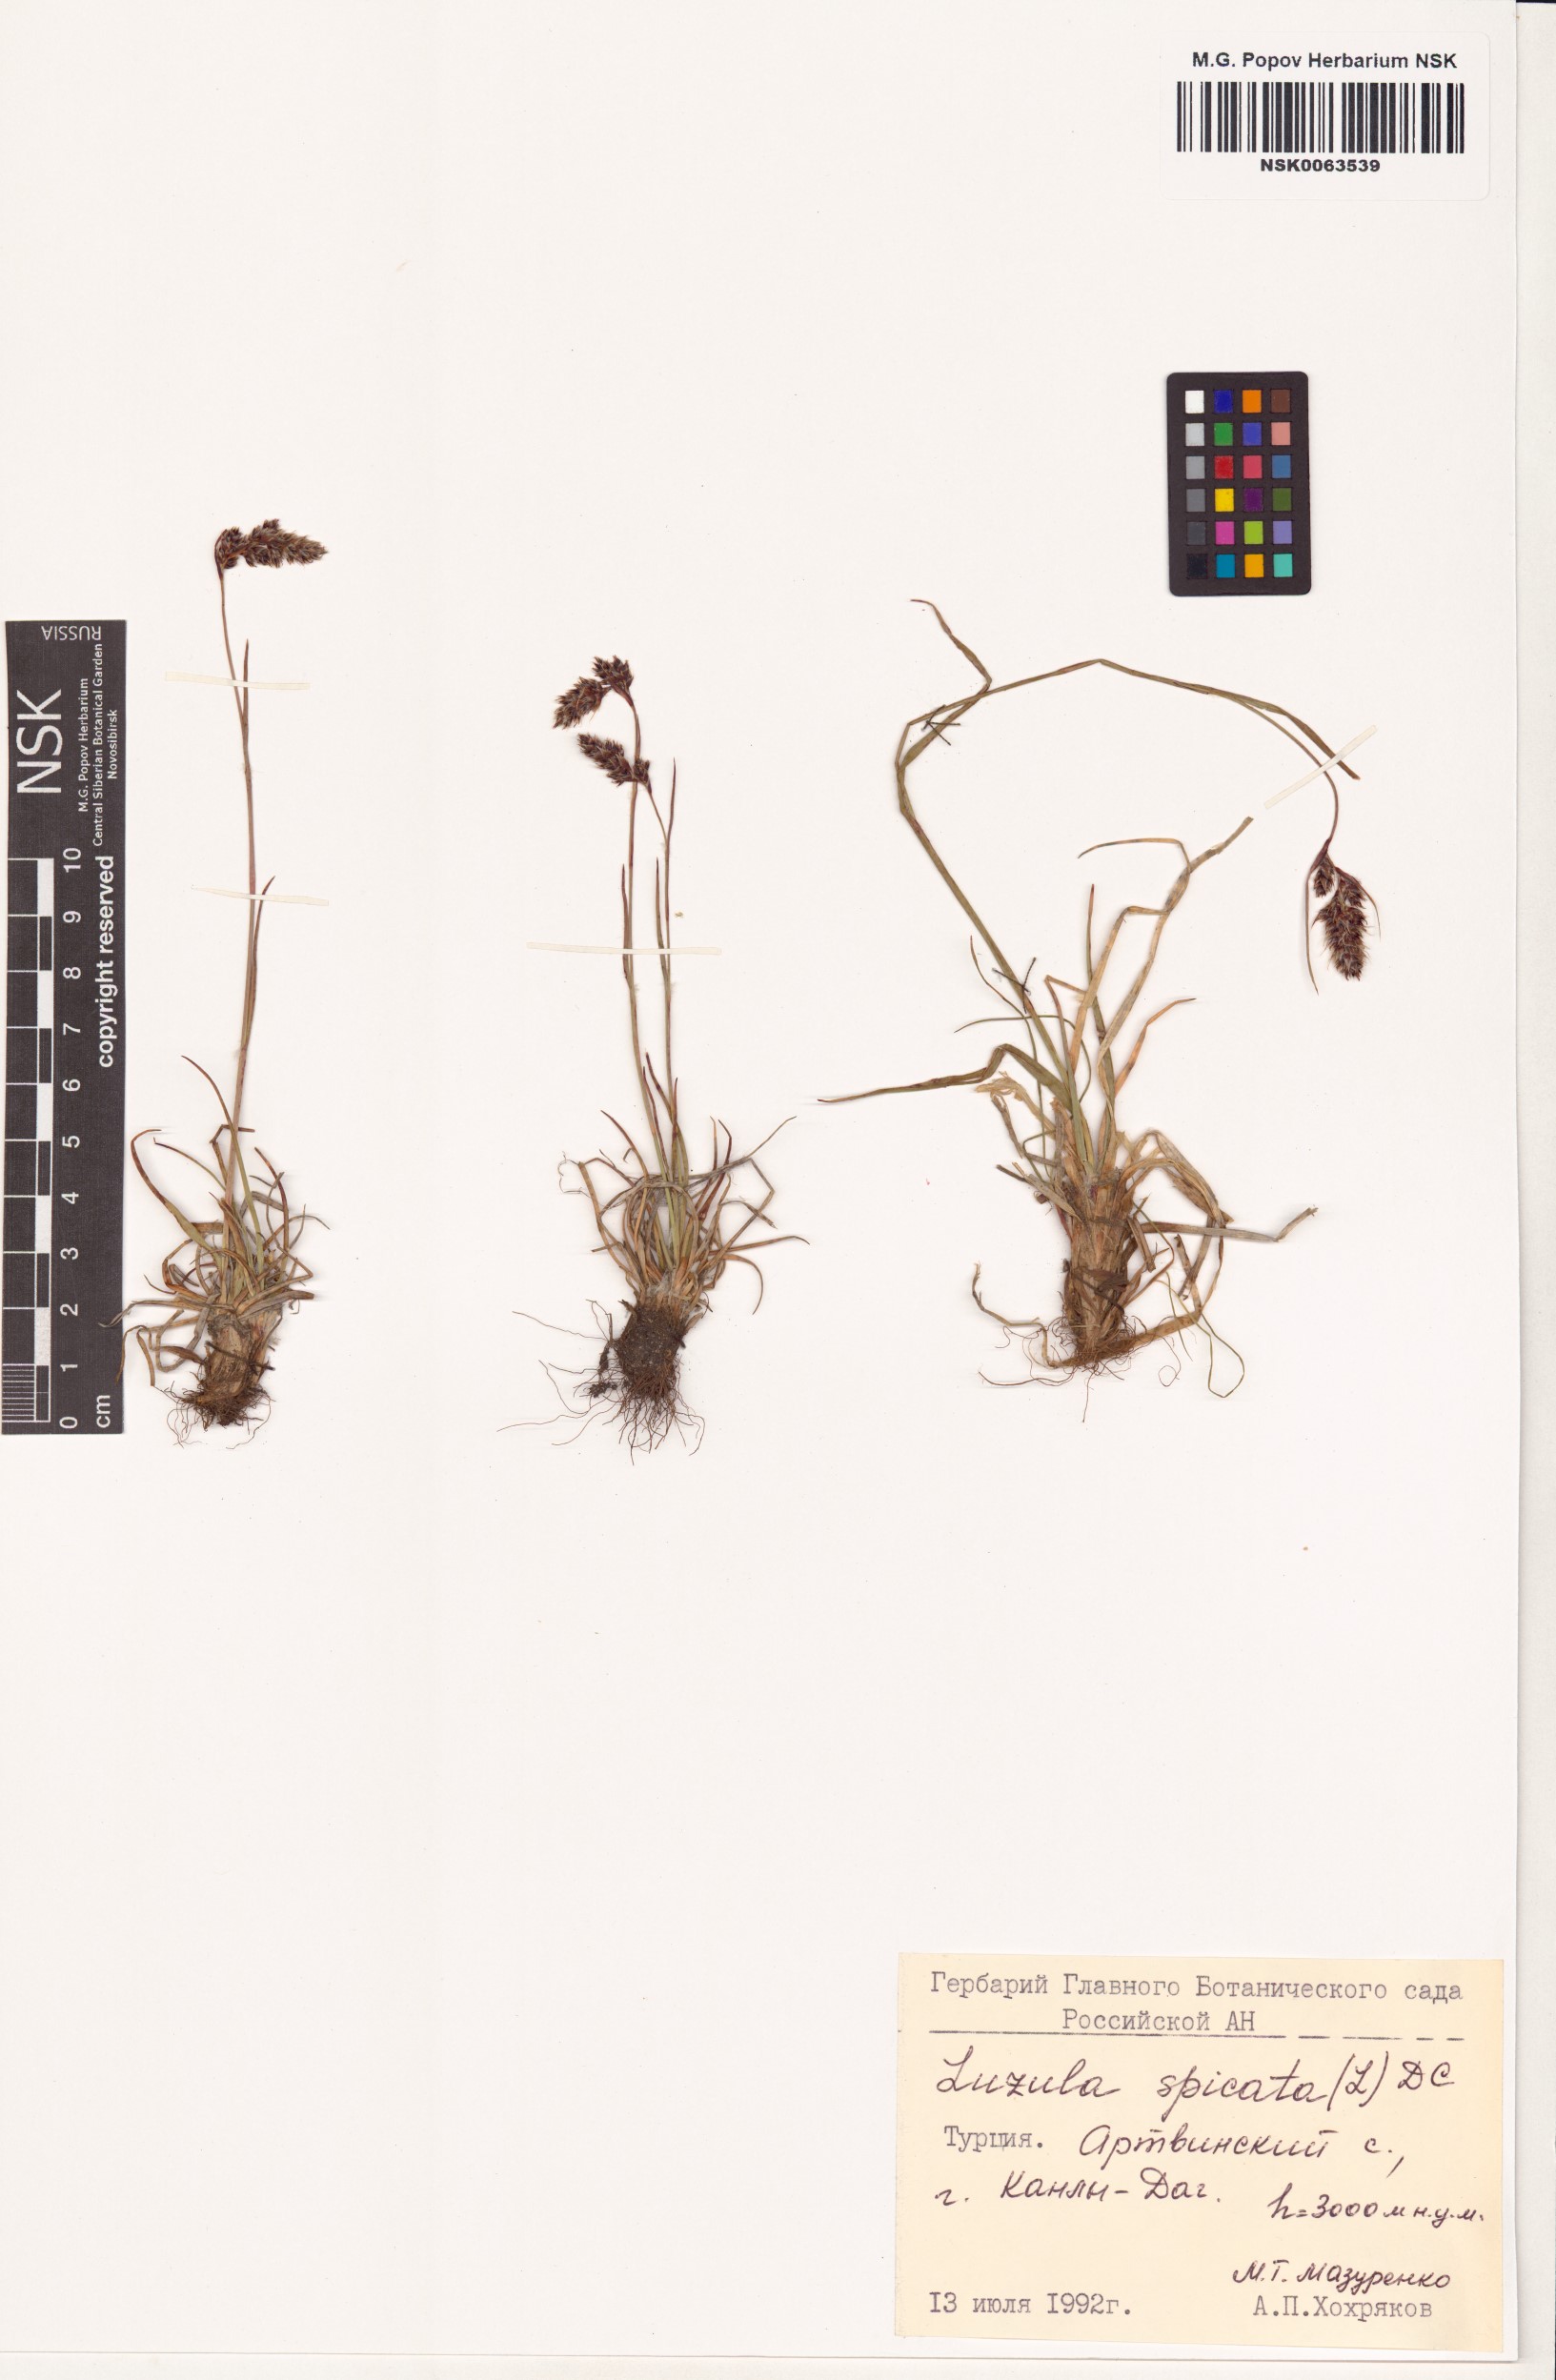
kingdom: Plantae
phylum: Tracheophyta
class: Liliopsida
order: Poales
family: Juncaceae
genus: Luzula
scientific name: Luzula spicata
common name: Spiked wood-rush
